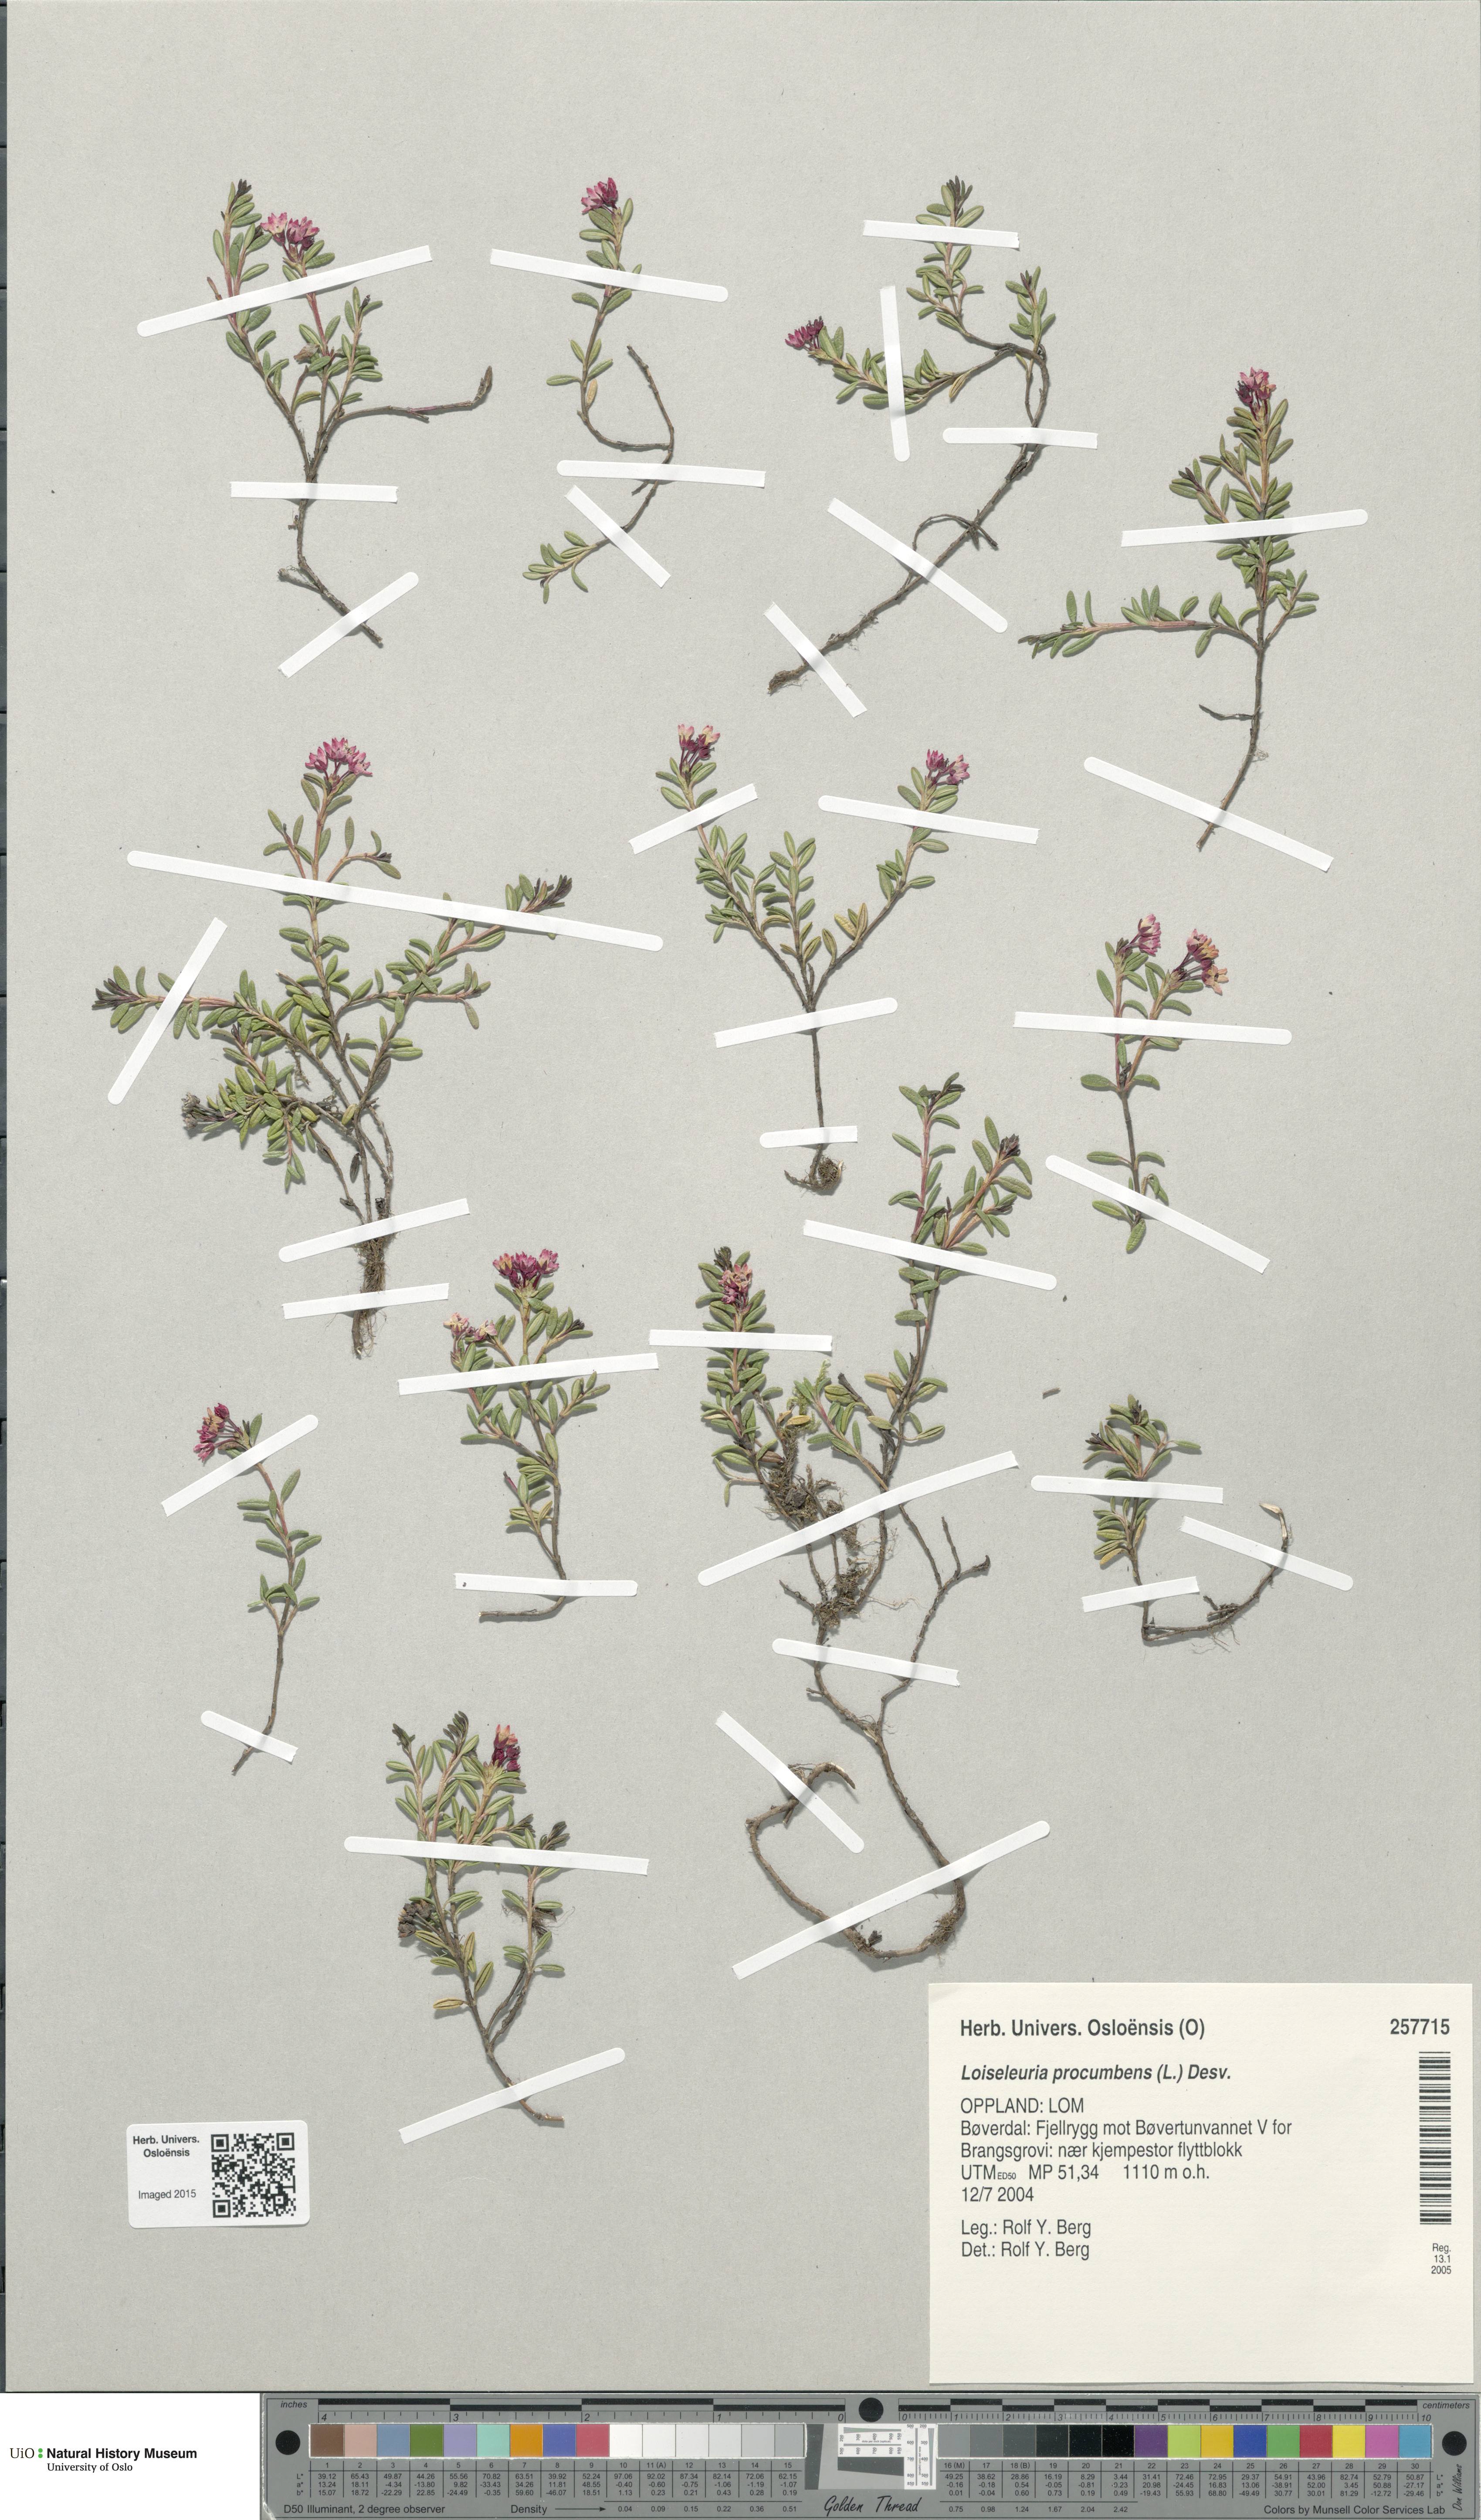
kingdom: Plantae
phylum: Tracheophyta
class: Magnoliopsida
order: Ericales
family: Ericaceae
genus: Kalmia
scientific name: Kalmia procumbens
